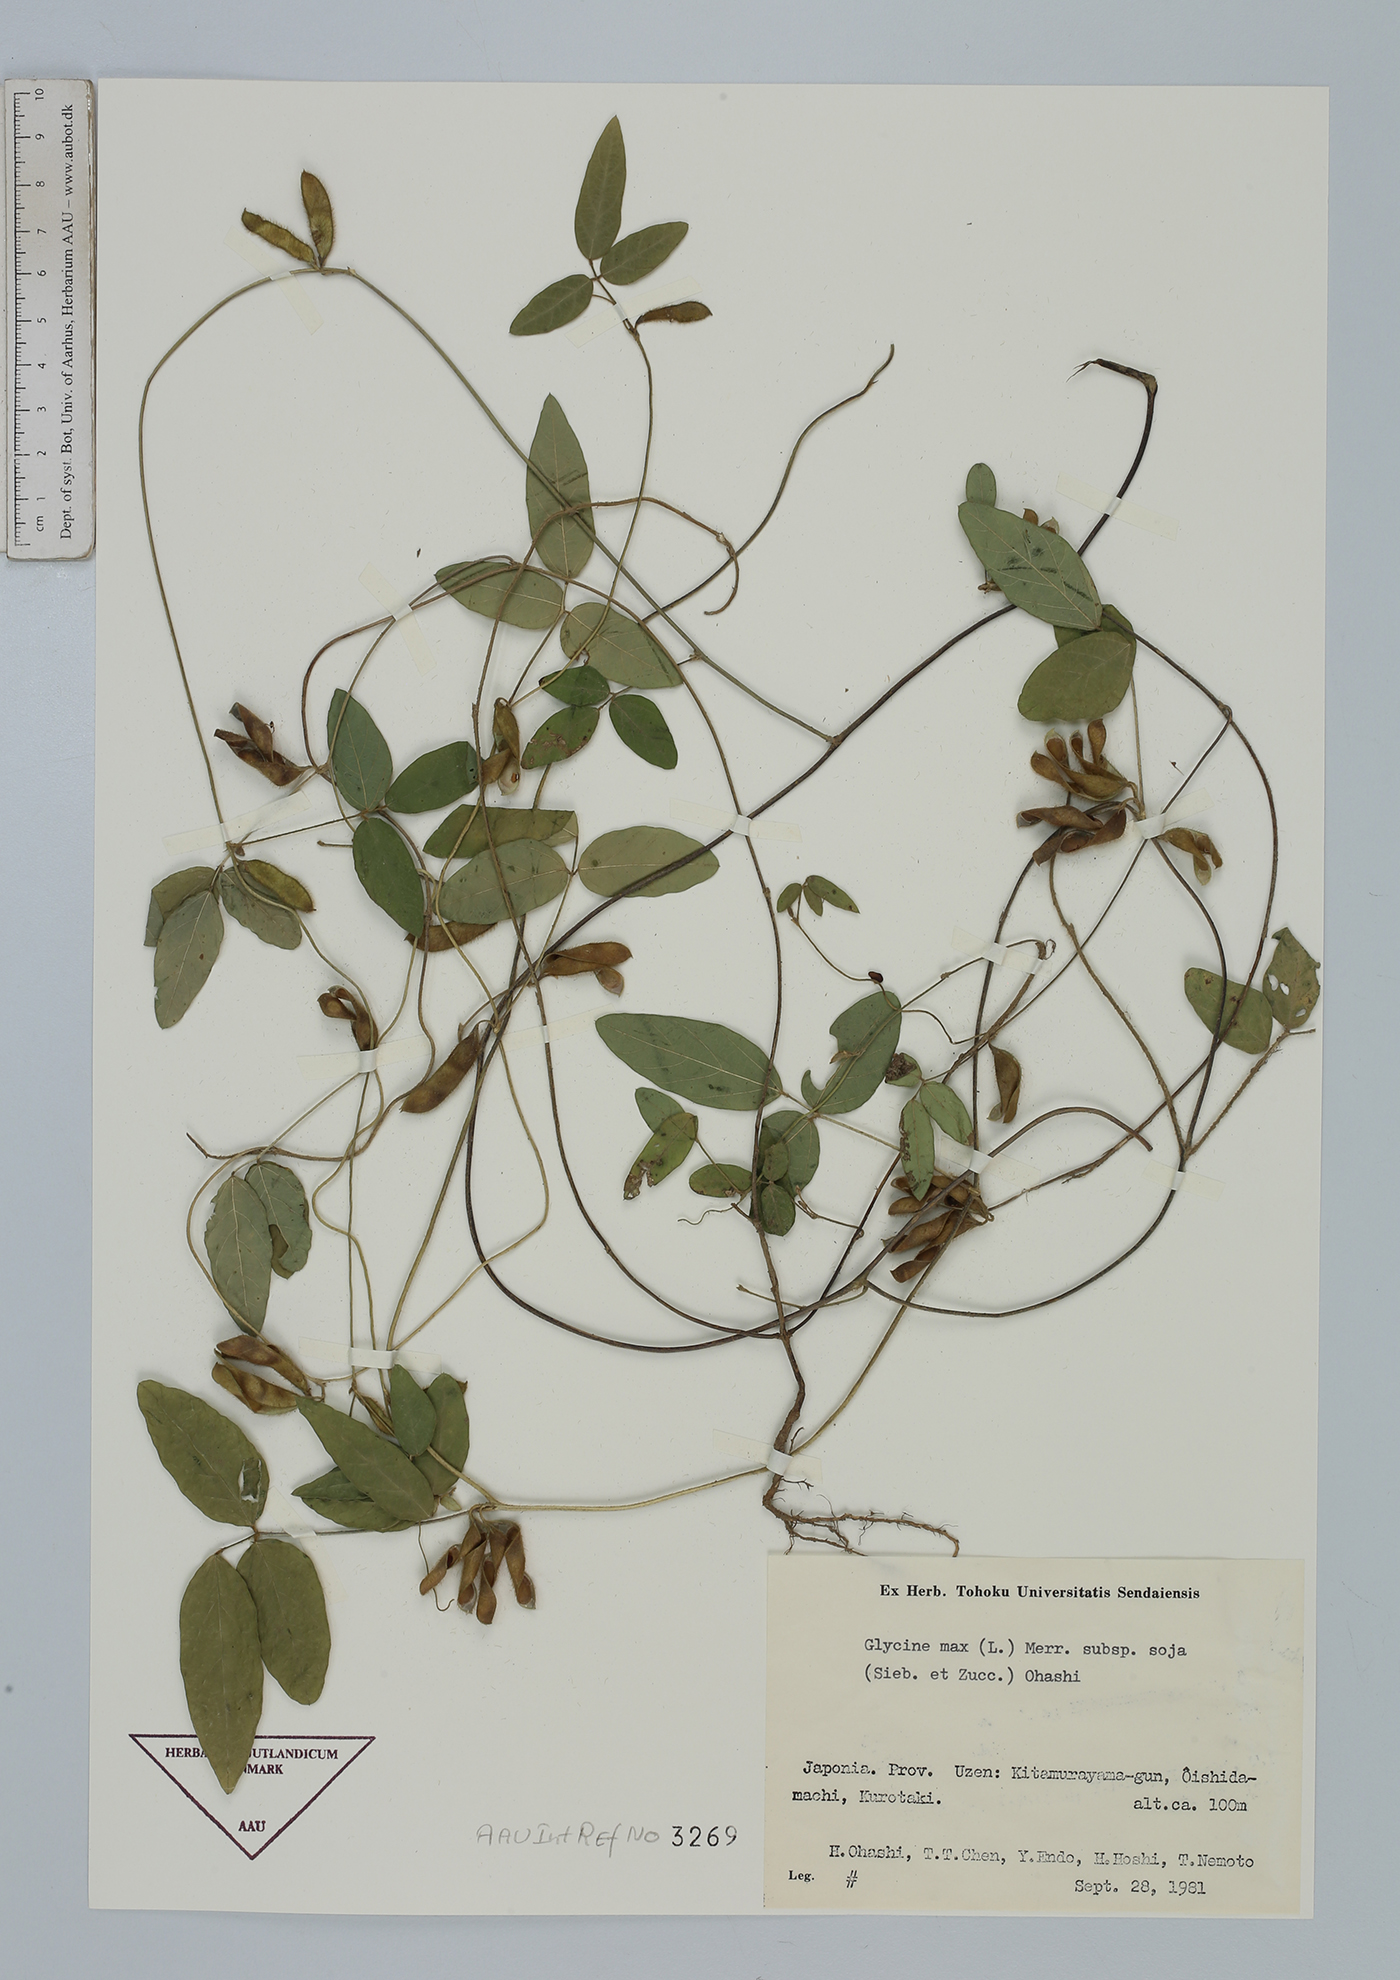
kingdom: Plantae
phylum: Tracheophyta
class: Magnoliopsida
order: Fabales
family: Fabaceae
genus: Glycine
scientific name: Glycine max
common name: Soya-bean
